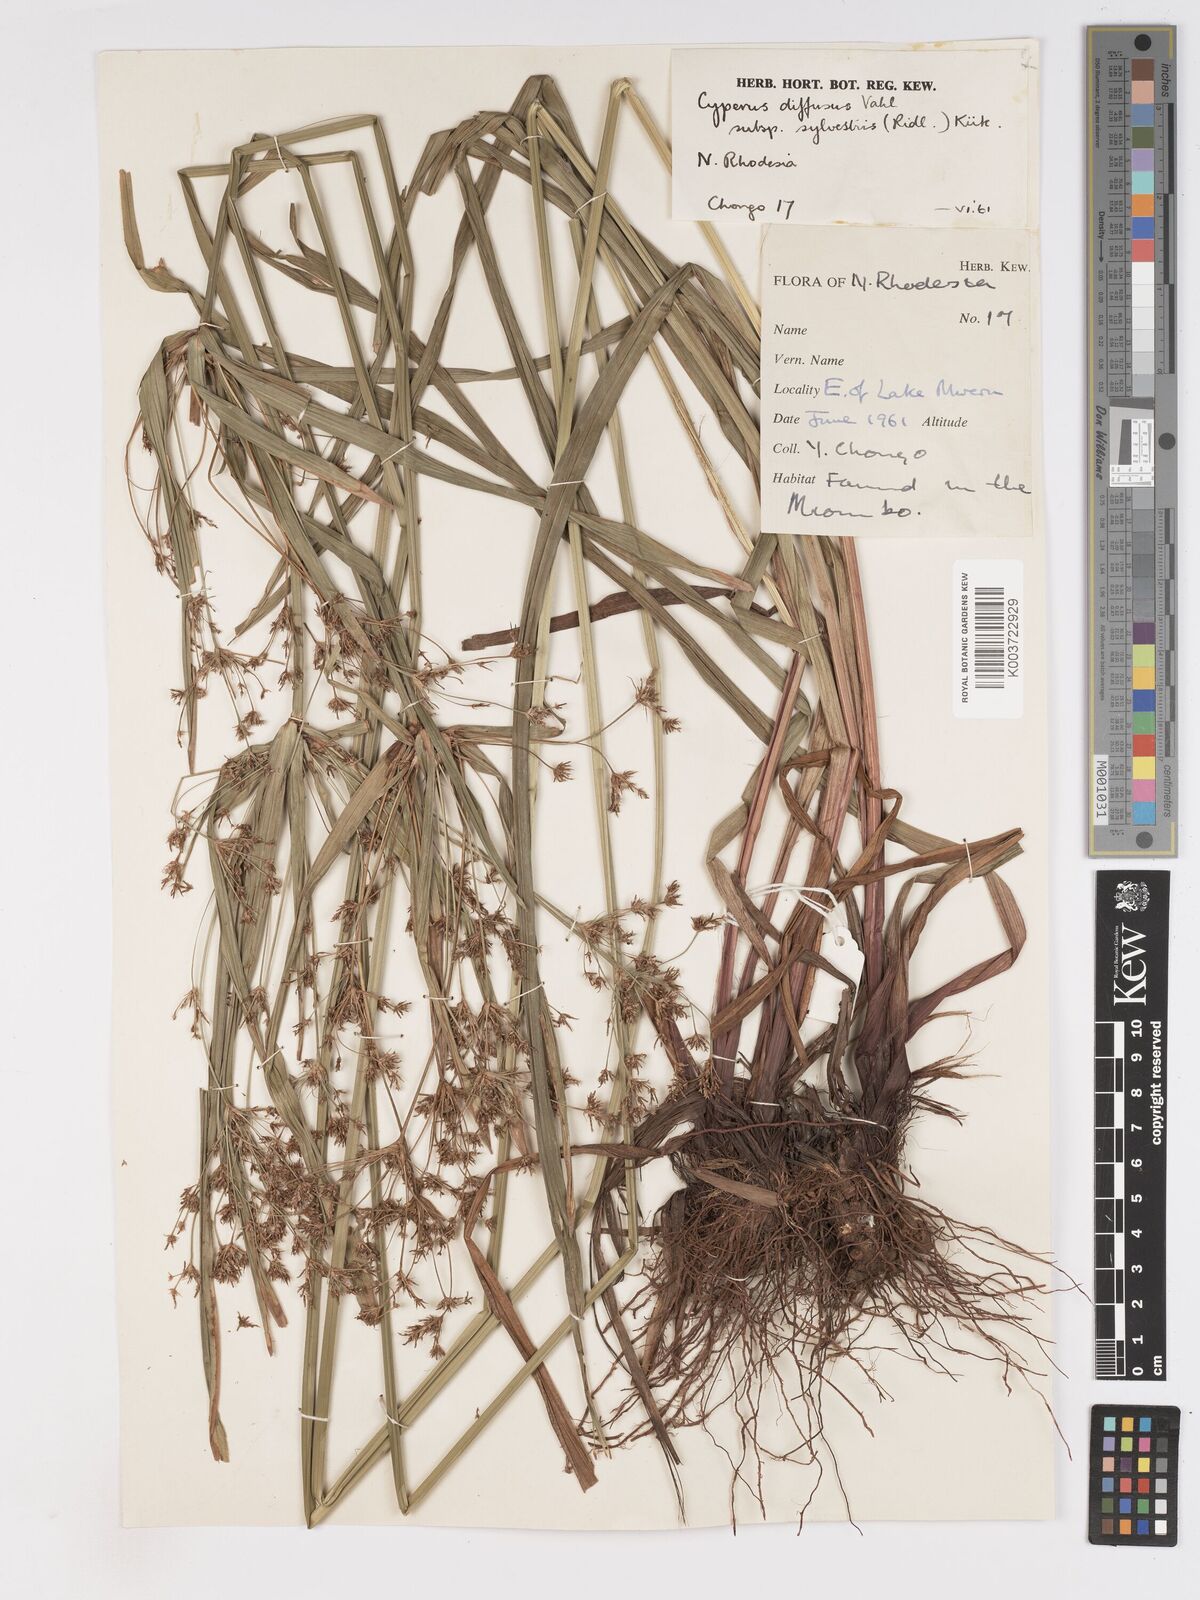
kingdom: Plantae
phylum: Tracheophyta
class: Liliopsida
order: Poales
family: Cyperaceae
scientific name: Cyperaceae
